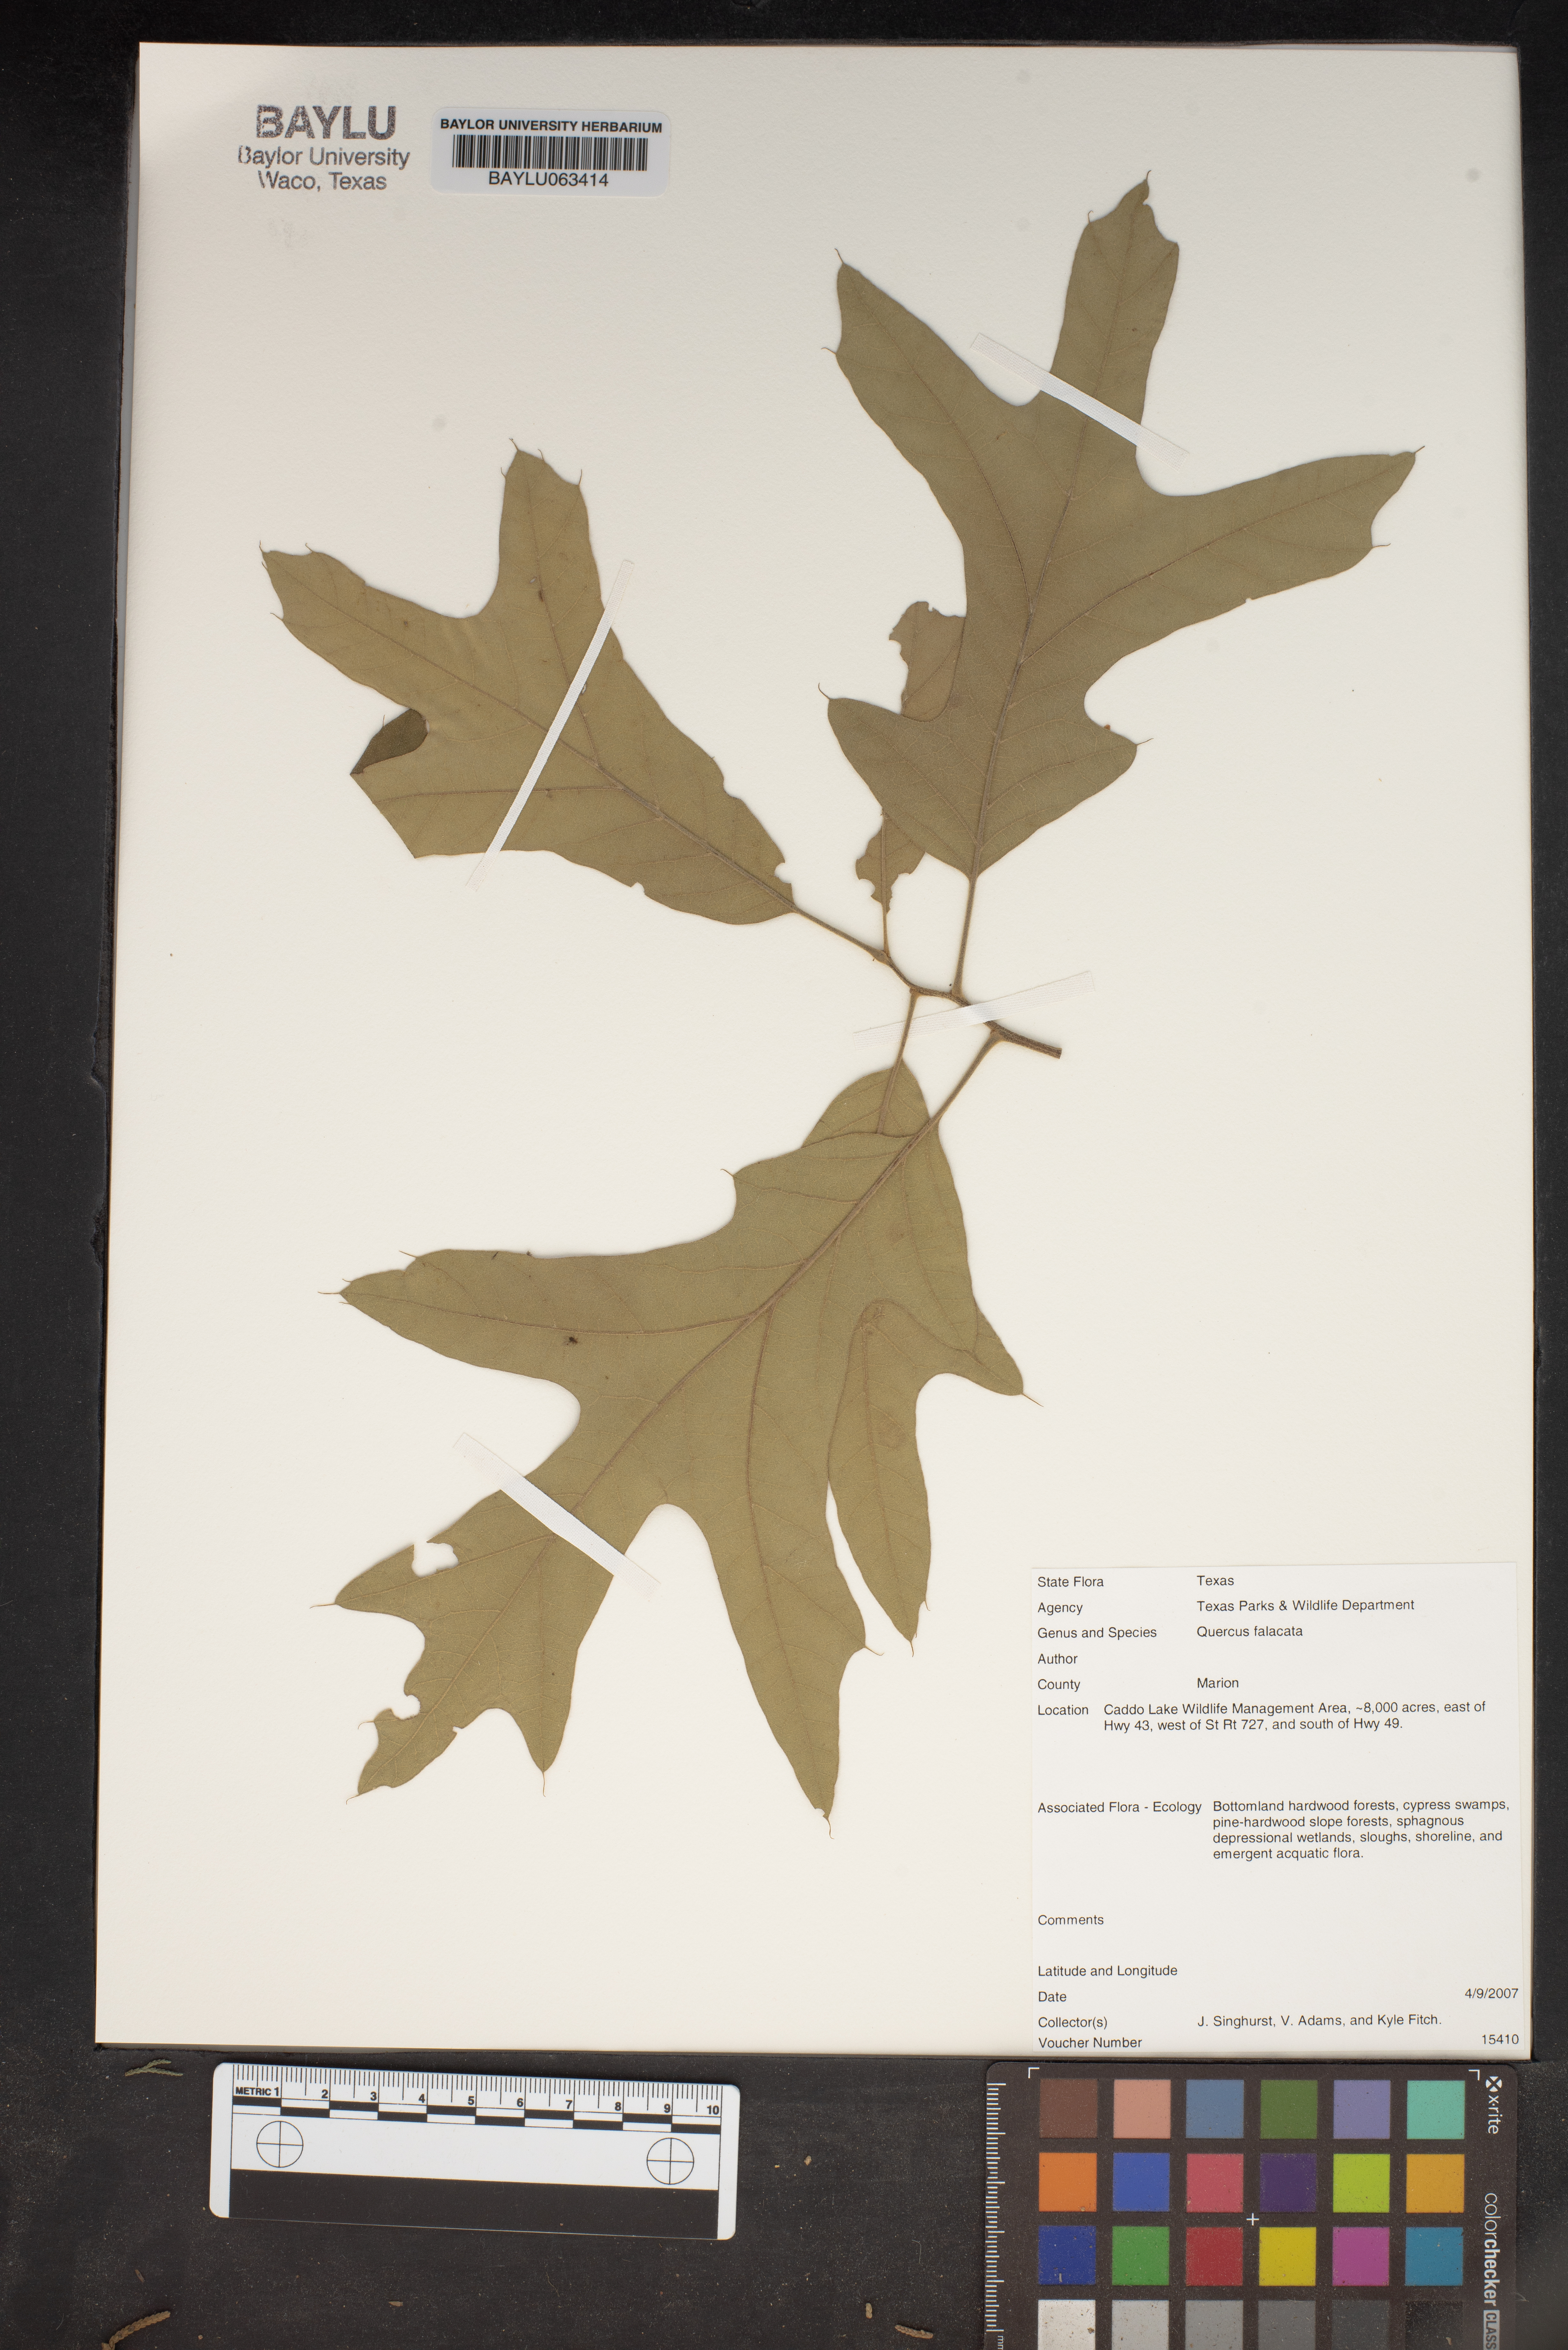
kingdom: Plantae
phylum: Tracheophyta
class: Magnoliopsida
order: Fagales
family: Fagaceae
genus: Quercus
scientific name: Quercus falcata
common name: Southern red oak
